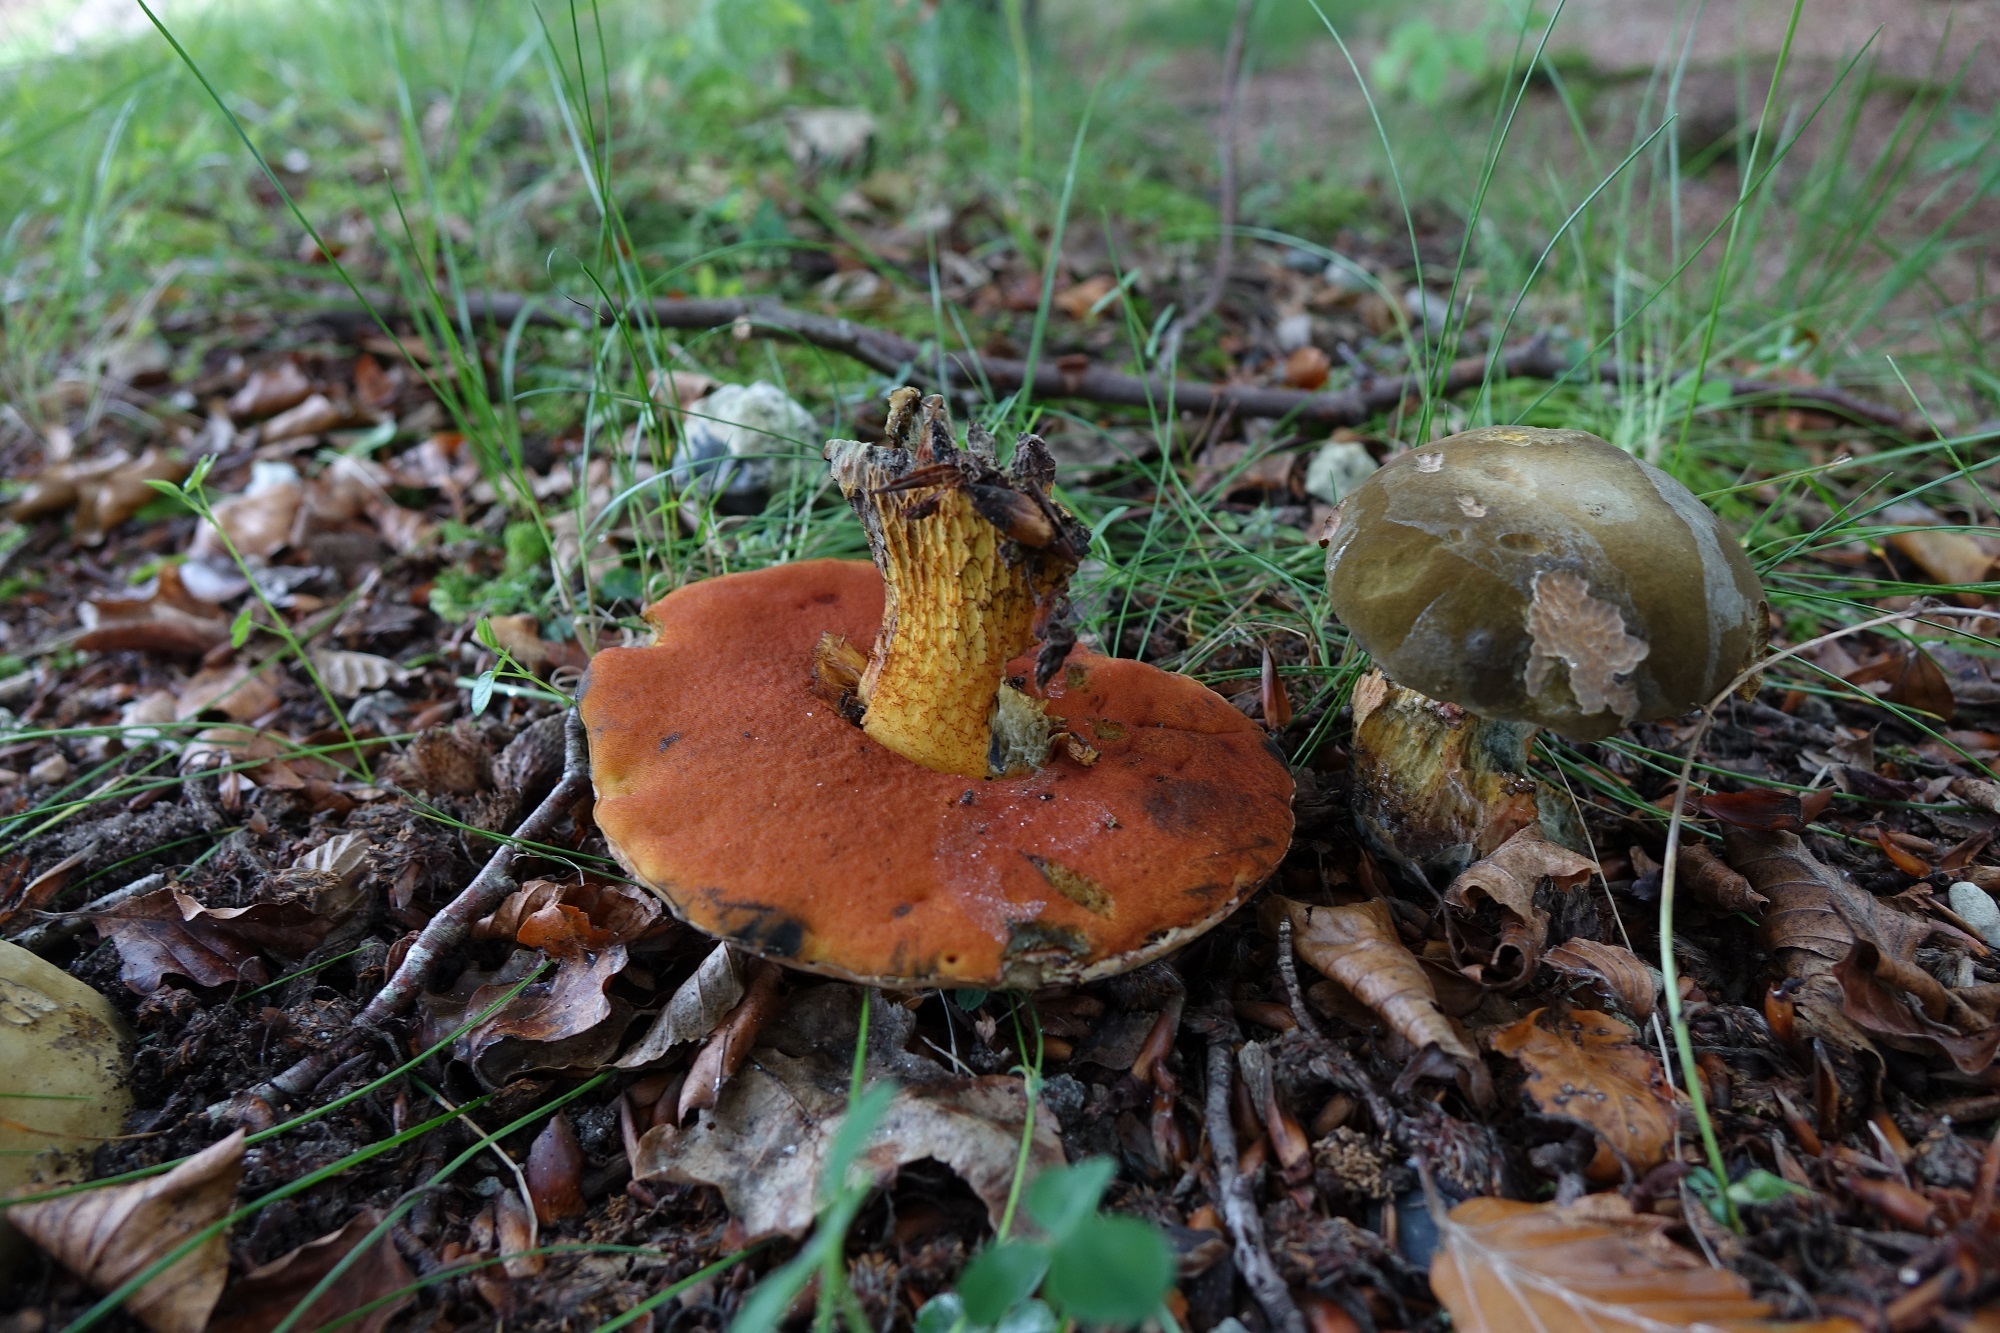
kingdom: Fungi
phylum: Basidiomycota
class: Agaricomycetes
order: Boletales
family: Boletaceae
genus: Suillellus
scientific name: Suillellus
